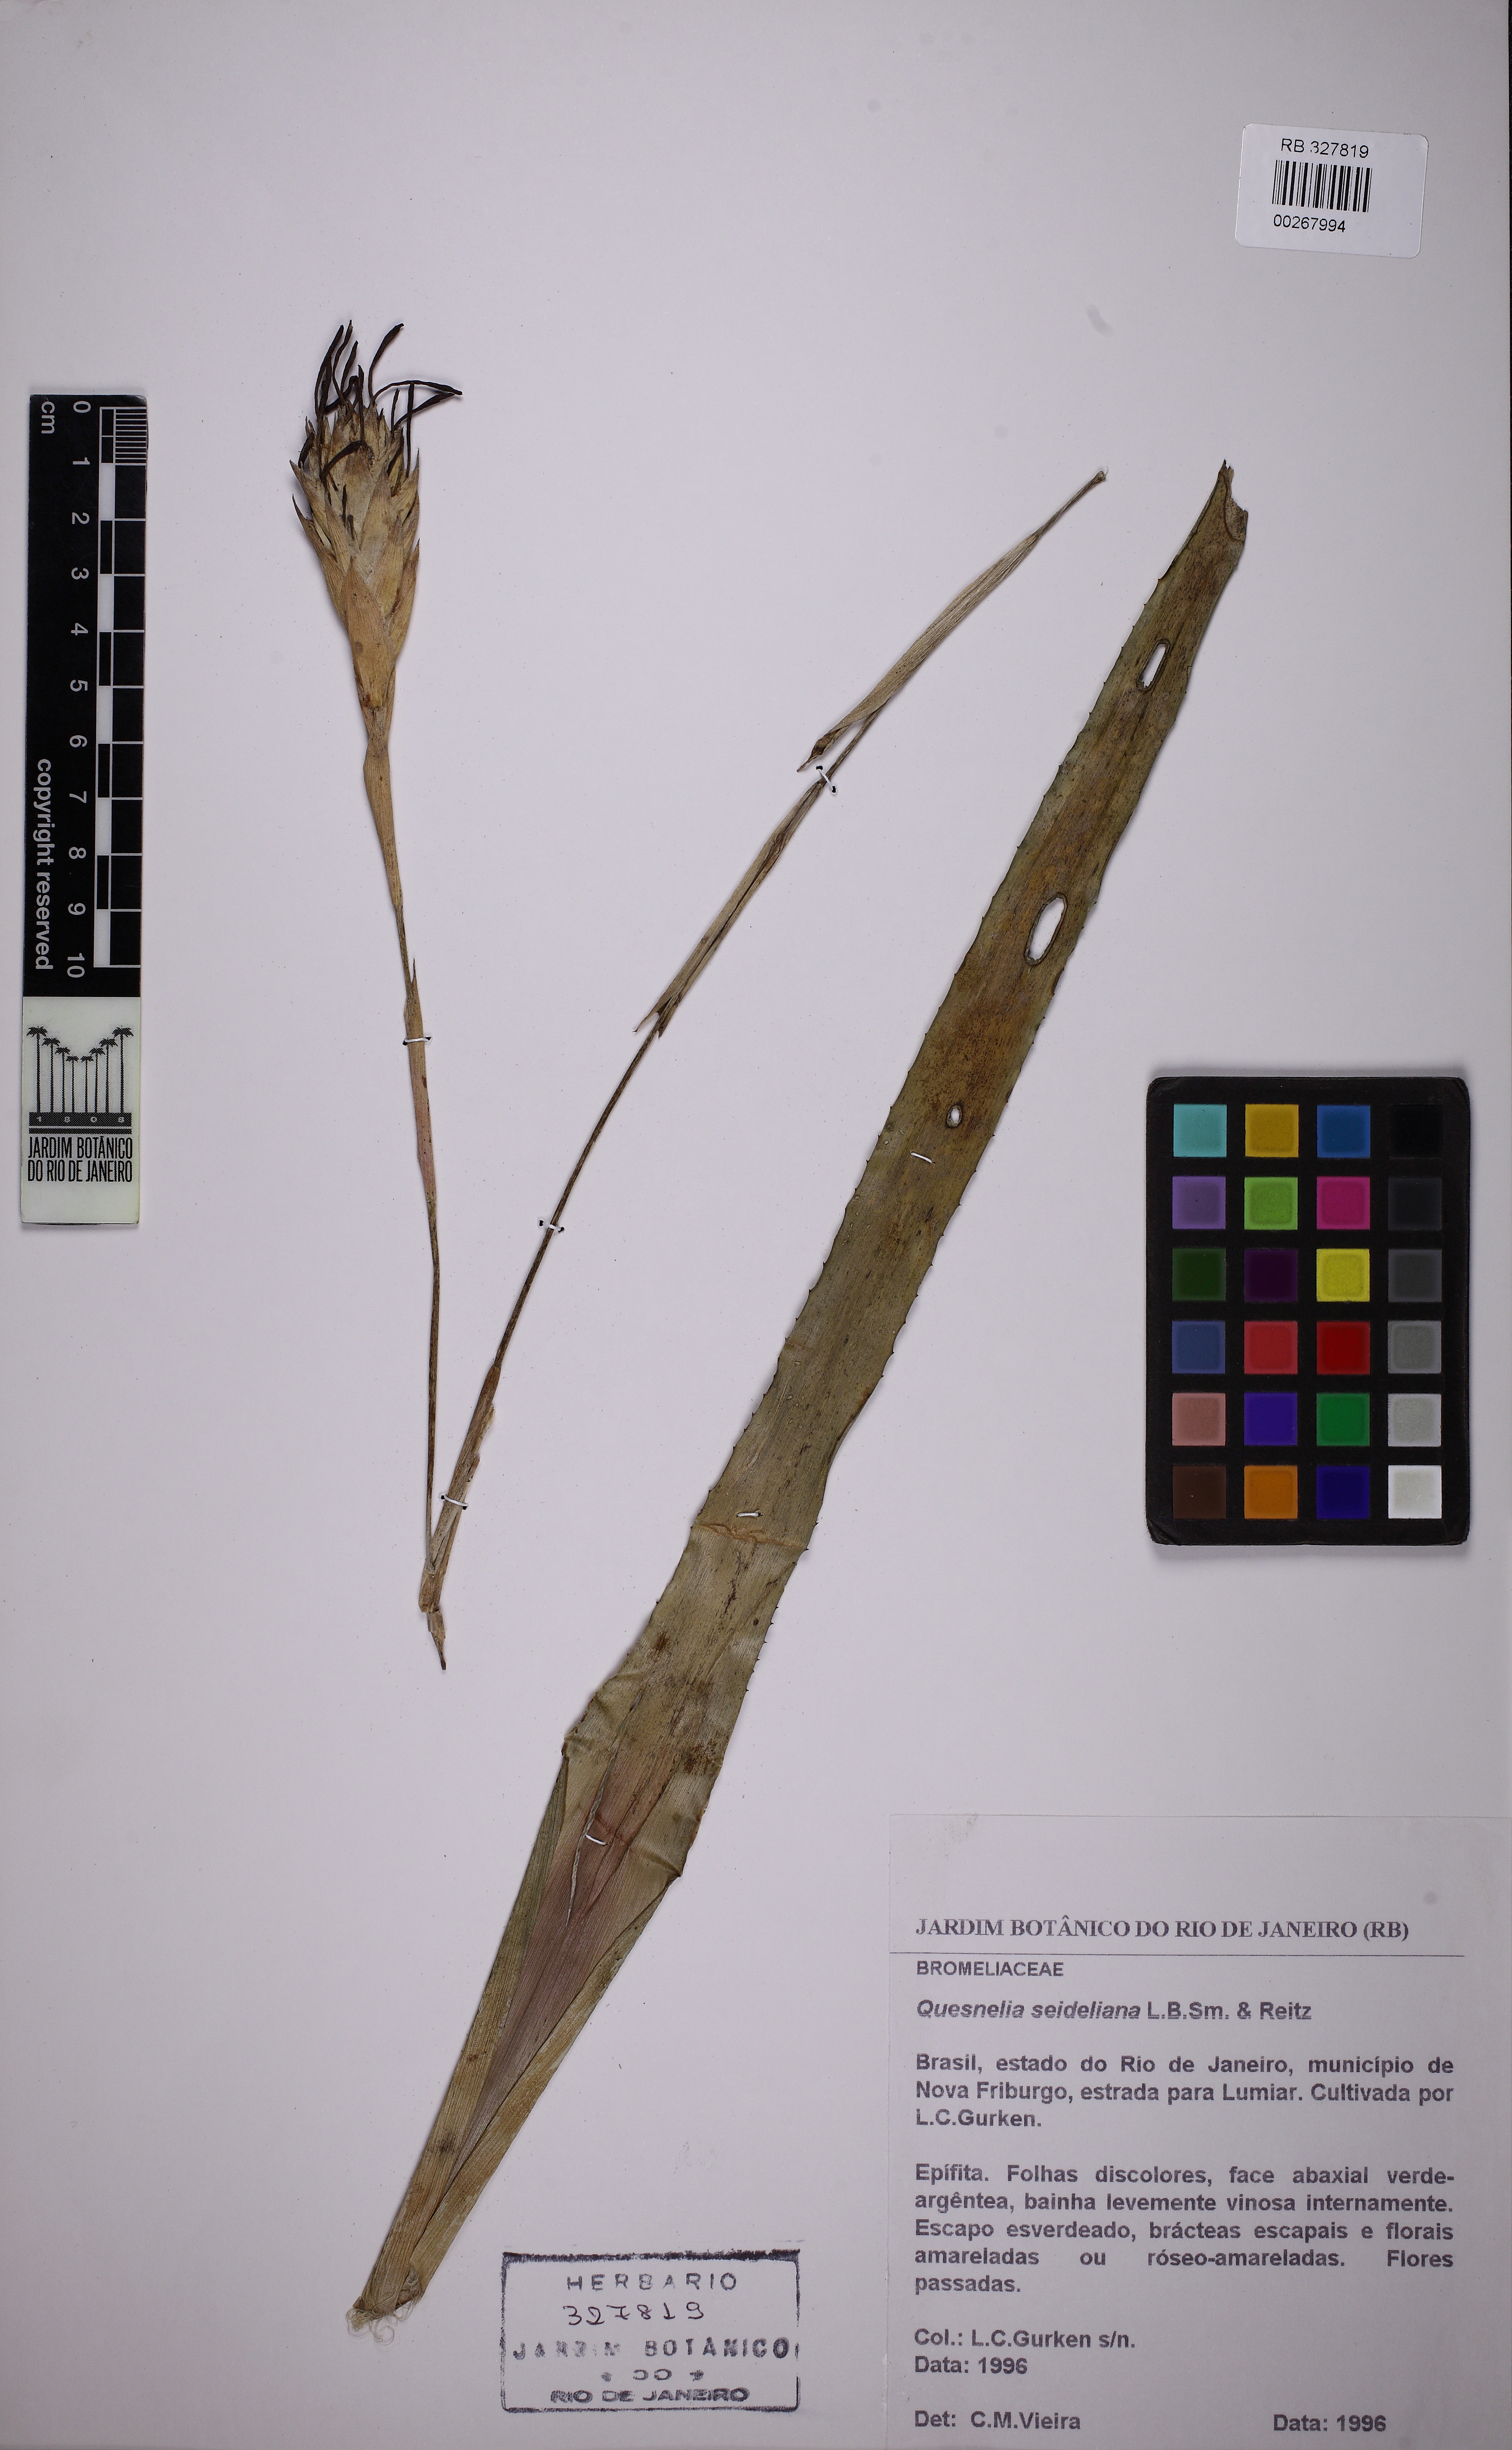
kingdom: Plantae
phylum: Tracheophyta
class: Liliopsida
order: Poales
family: Bromeliaceae
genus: Quesnelia
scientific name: Quesnelia seideliana
